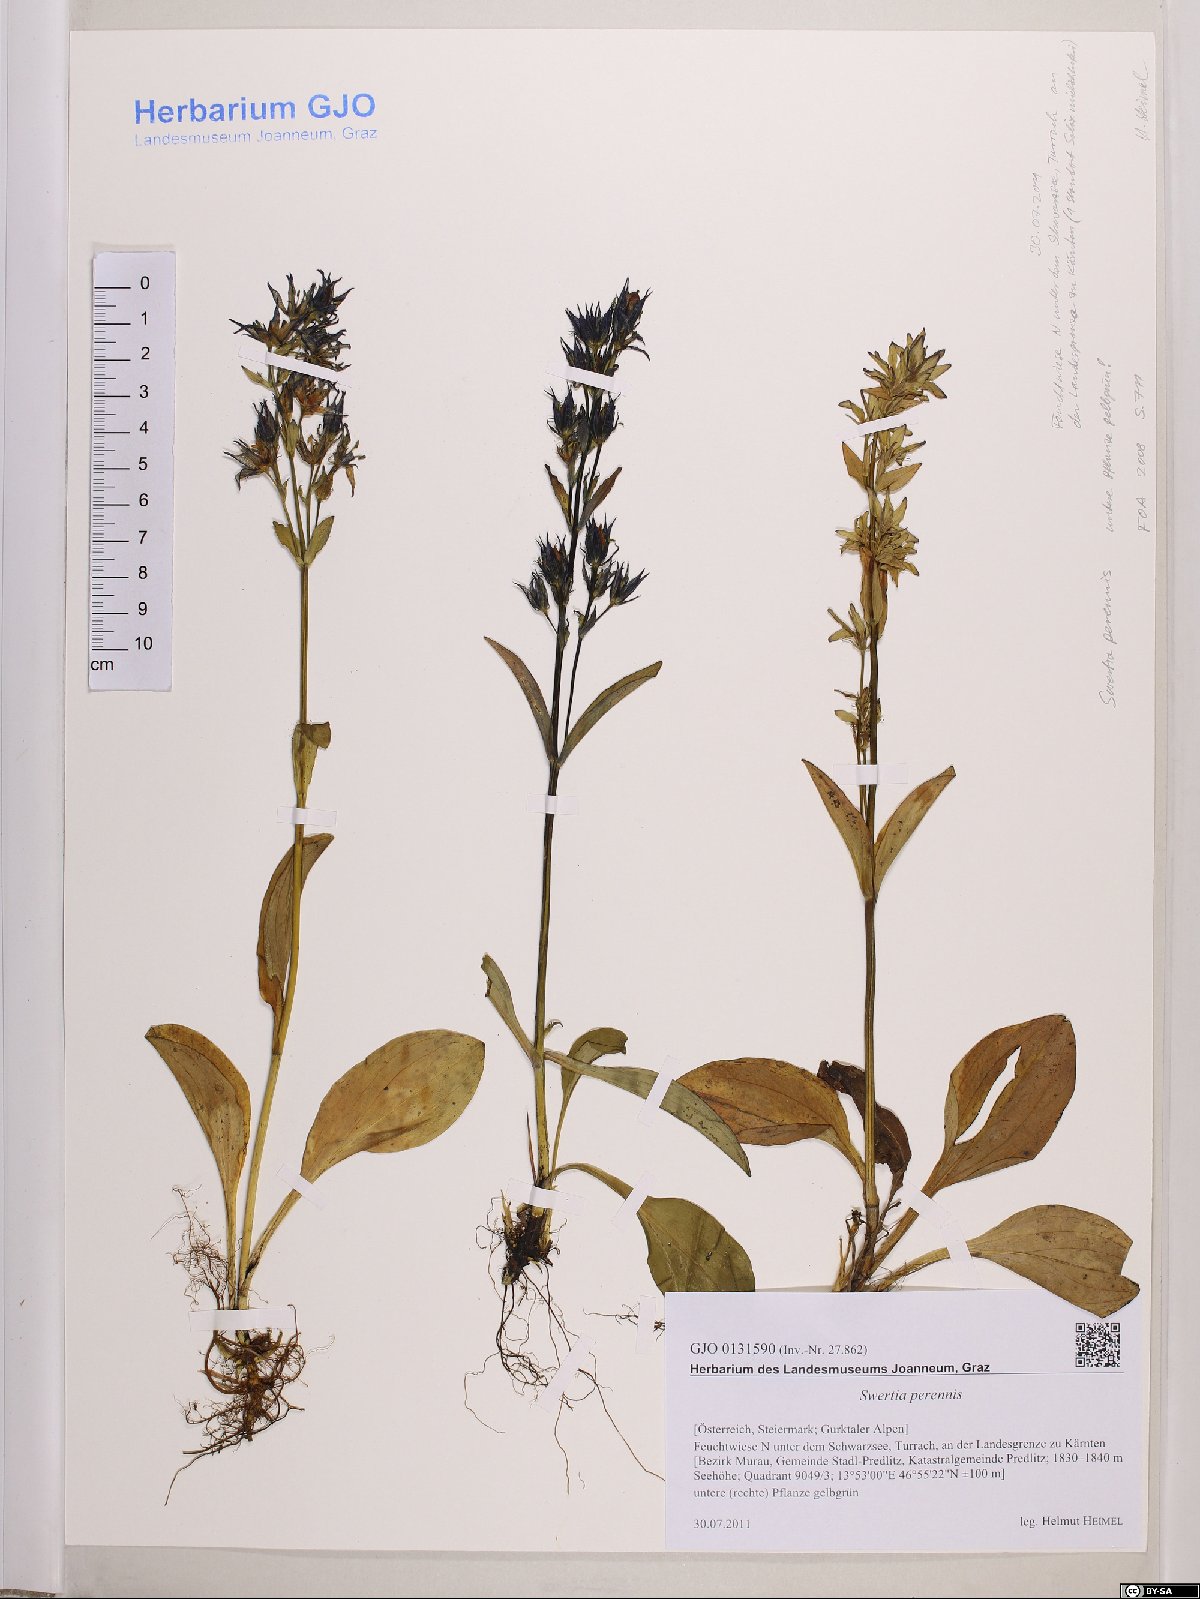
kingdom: Plantae
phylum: Tracheophyta
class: Magnoliopsida
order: Gentianales
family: Gentianaceae
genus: Swertia
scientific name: Swertia perennis
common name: Alpine bog swertia
